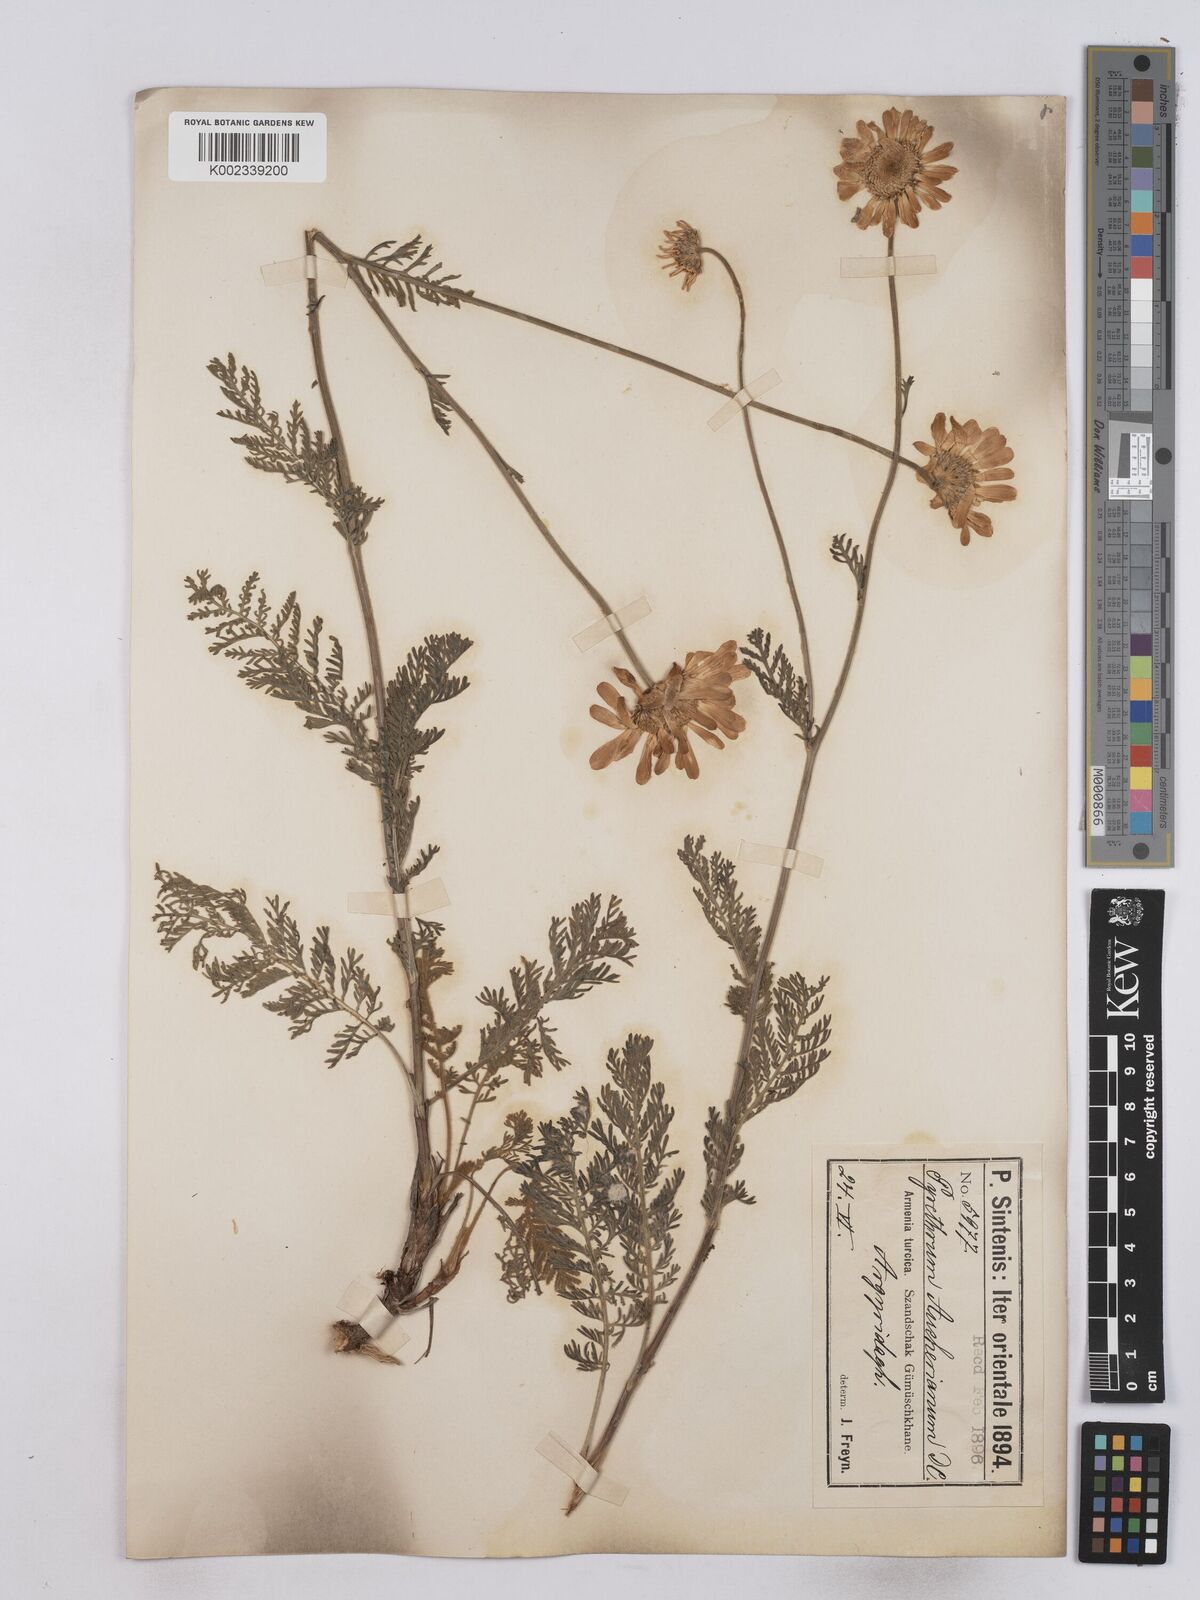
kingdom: Plantae
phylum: Tracheophyta
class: Magnoliopsida
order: Asterales
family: Asteraceae
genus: Tanacetum
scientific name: Tanacetum aucherianum
